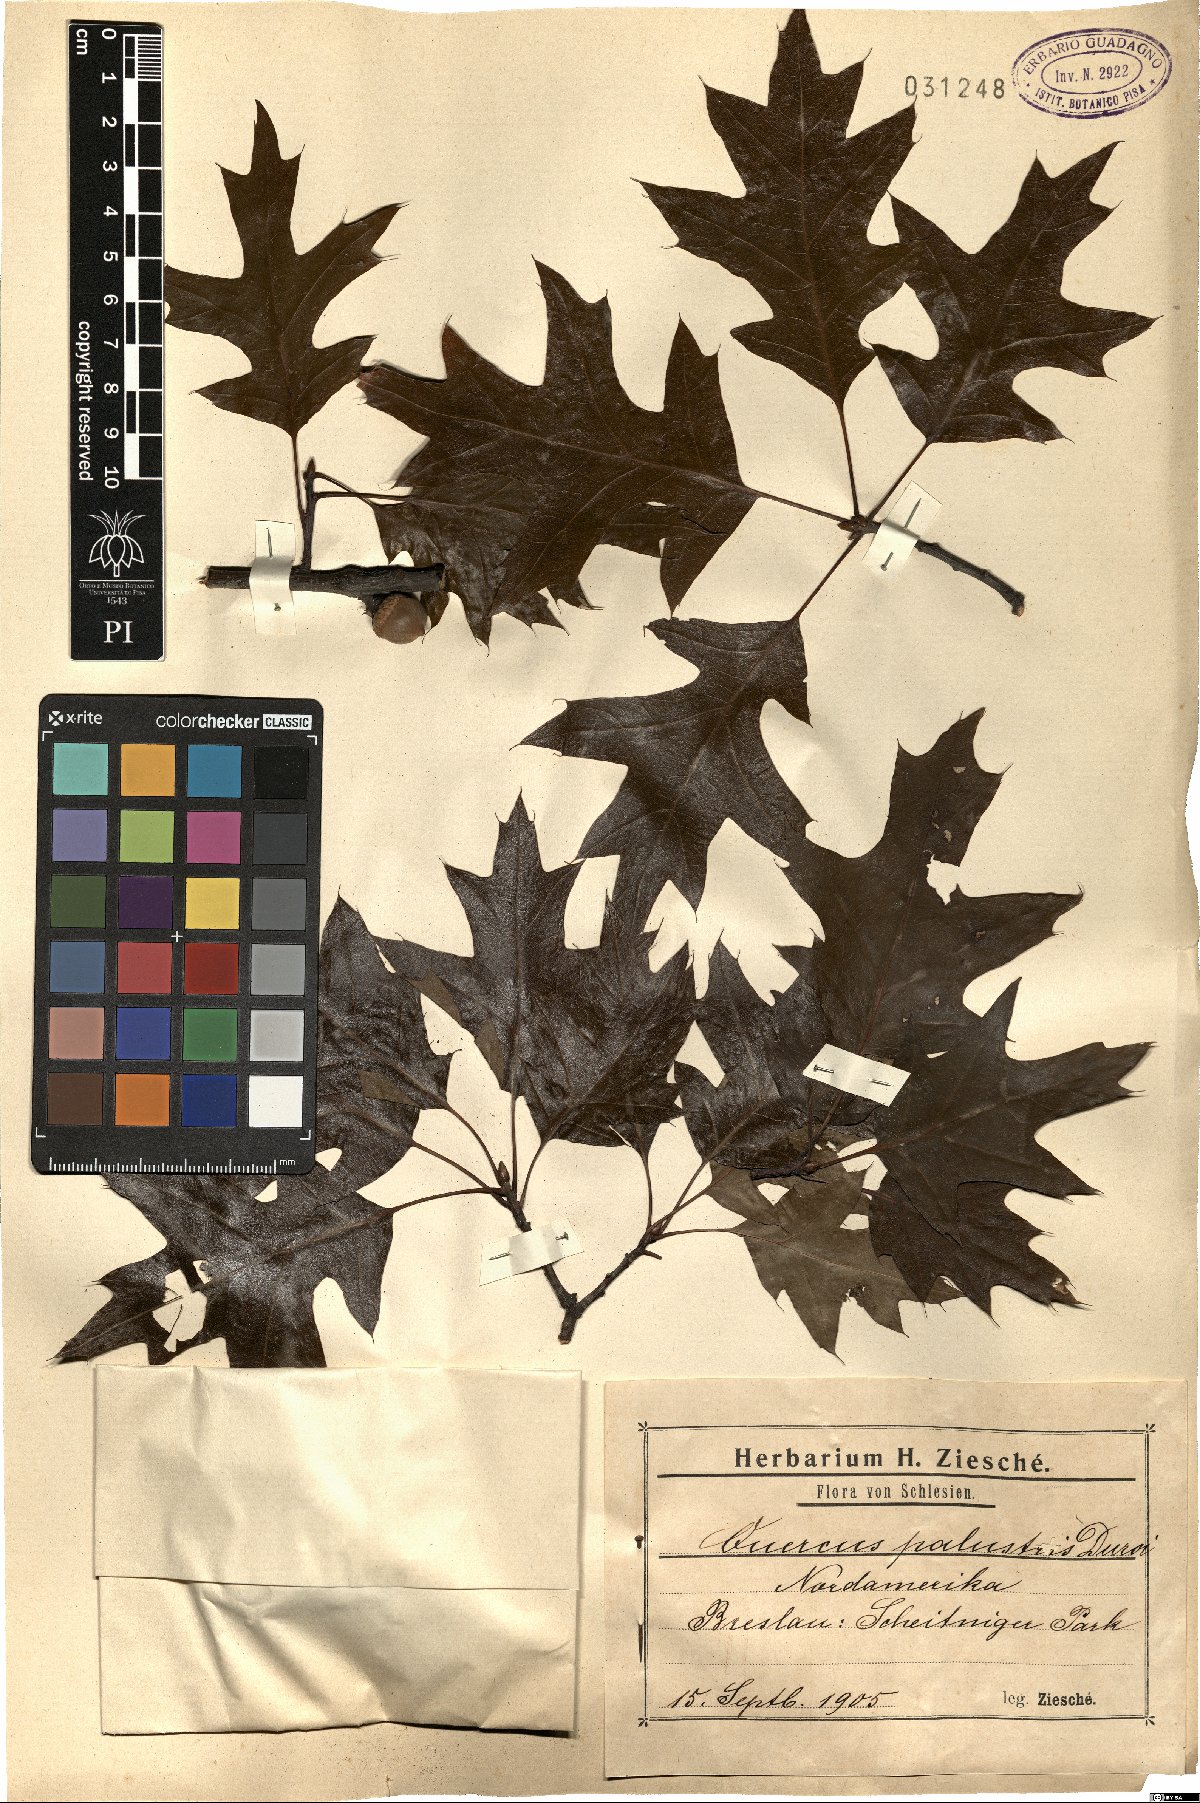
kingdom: Plantae
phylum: Tracheophyta
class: Magnoliopsida
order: Fagales
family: Fagaceae
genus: Quercus
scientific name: Quercus palustris
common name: Pin oak
